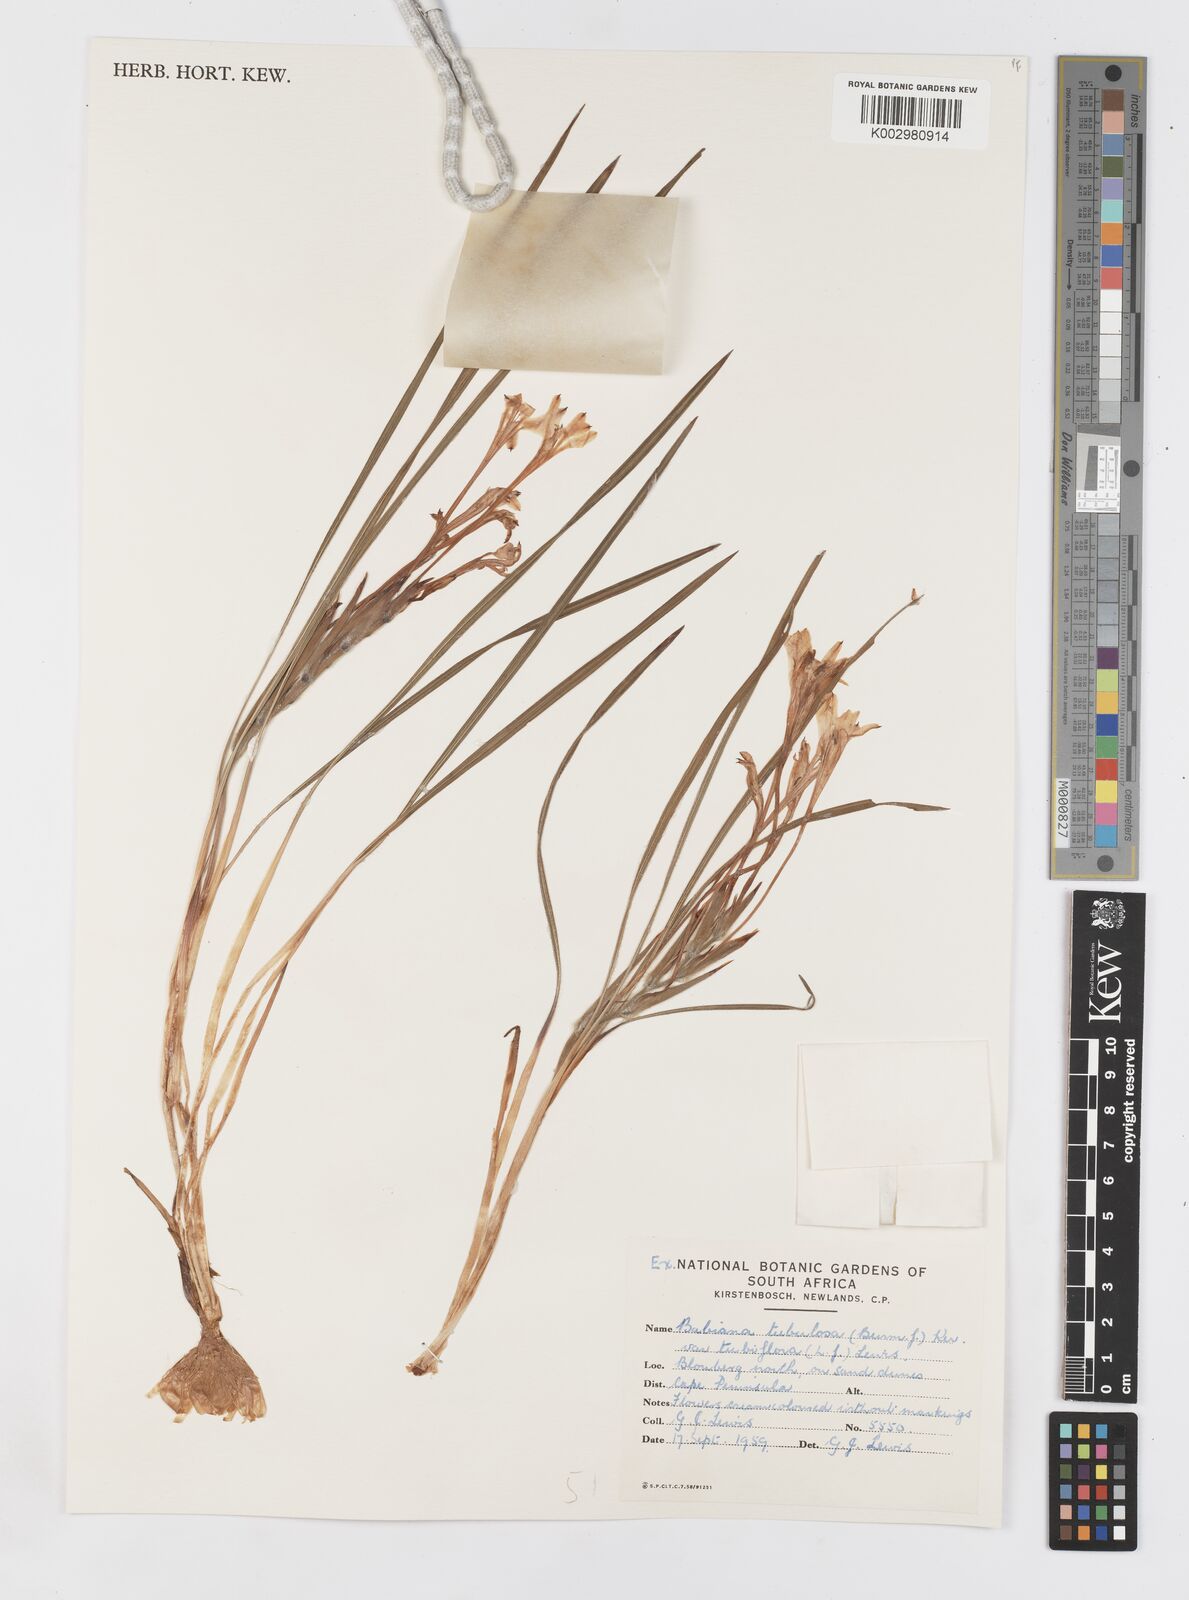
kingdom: Plantae
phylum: Tracheophyta
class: Liliopsida
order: Asparagales
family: Iridaceae
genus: Babiana
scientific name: Babiana tubiflora
